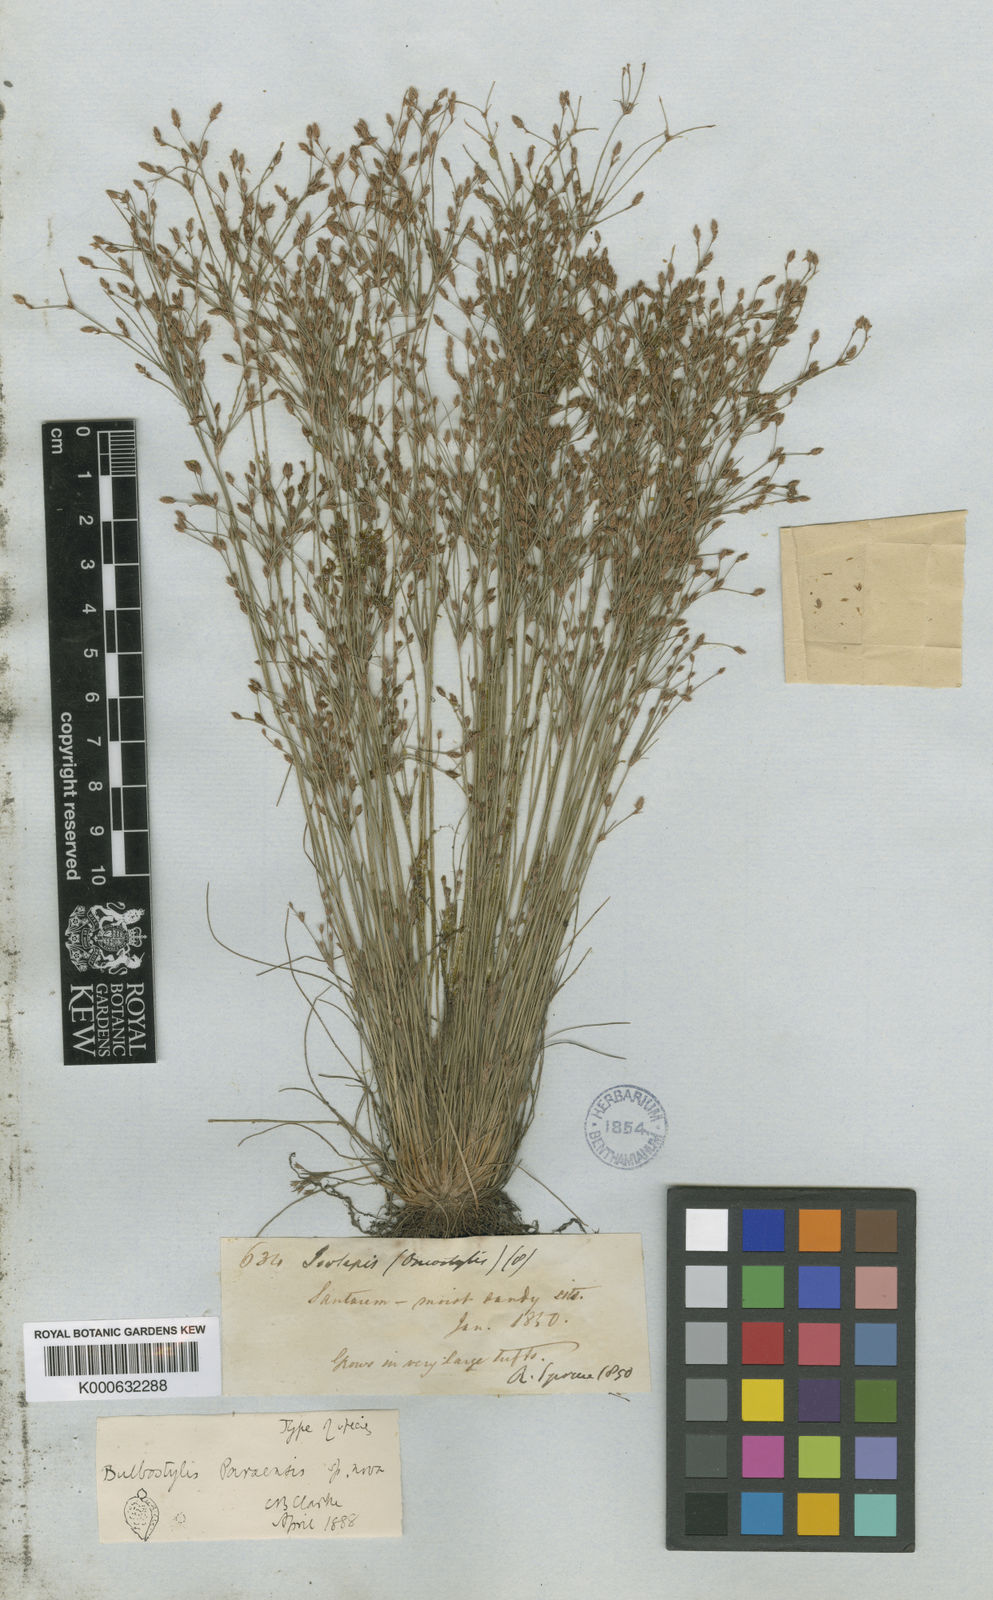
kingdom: Plantae
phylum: Tracheophyta
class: Liliopsida
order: Poales
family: Cyperaceae
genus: Bulbostylis
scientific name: Bulbostylis paraensis
